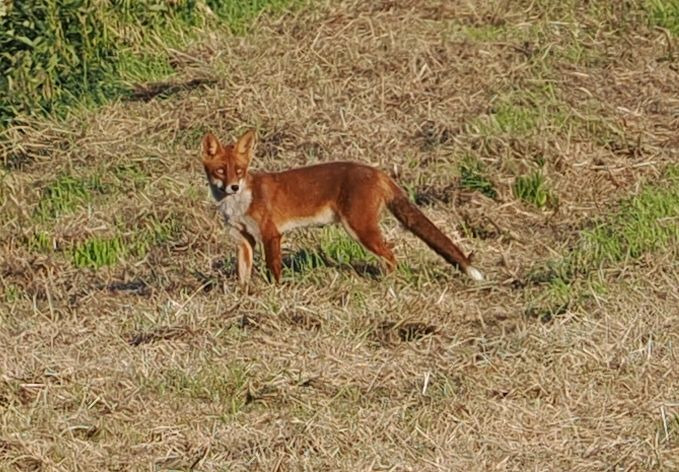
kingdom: Animalia
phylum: Chordata
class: Mammalia
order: Carnivora
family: Canidae
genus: Vulpes
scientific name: Vulpes vulpes
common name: Ræv
